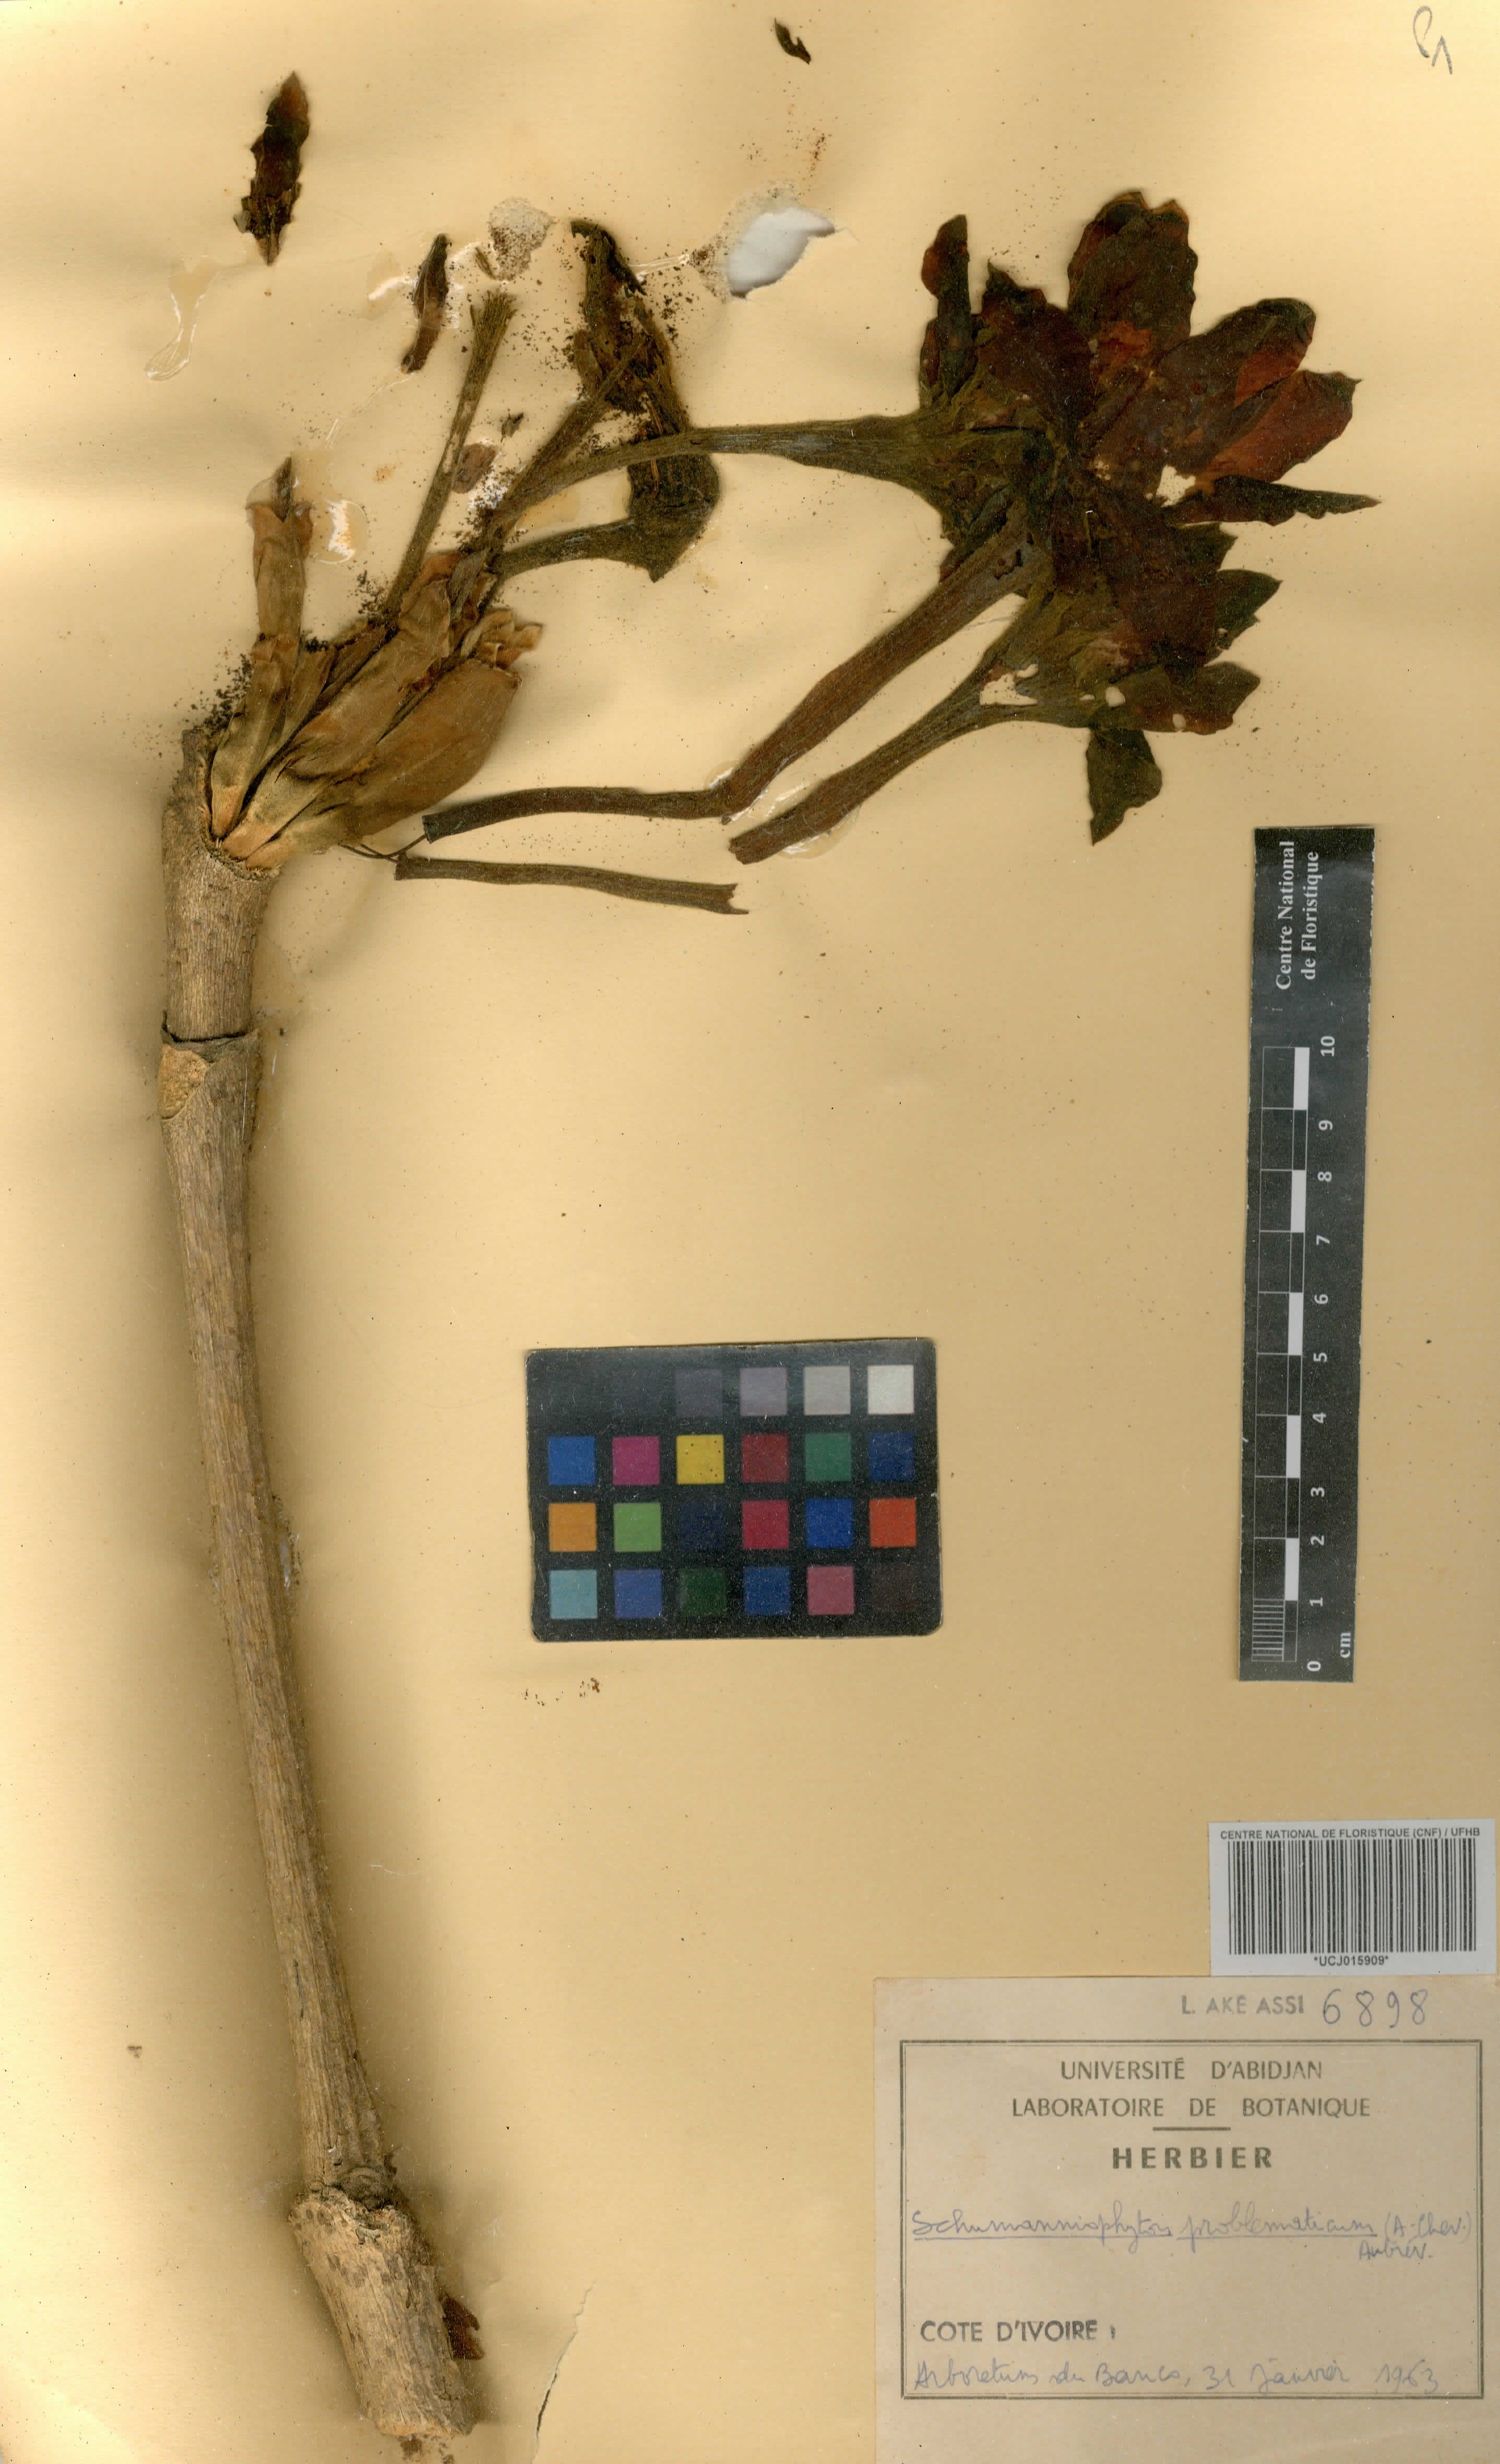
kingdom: Plantae
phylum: Tracheophyta
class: Magnoliopsida
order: Gentianales
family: Rubiaceae
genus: Schumanniophyton
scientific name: Schumanniophyton problematicum
